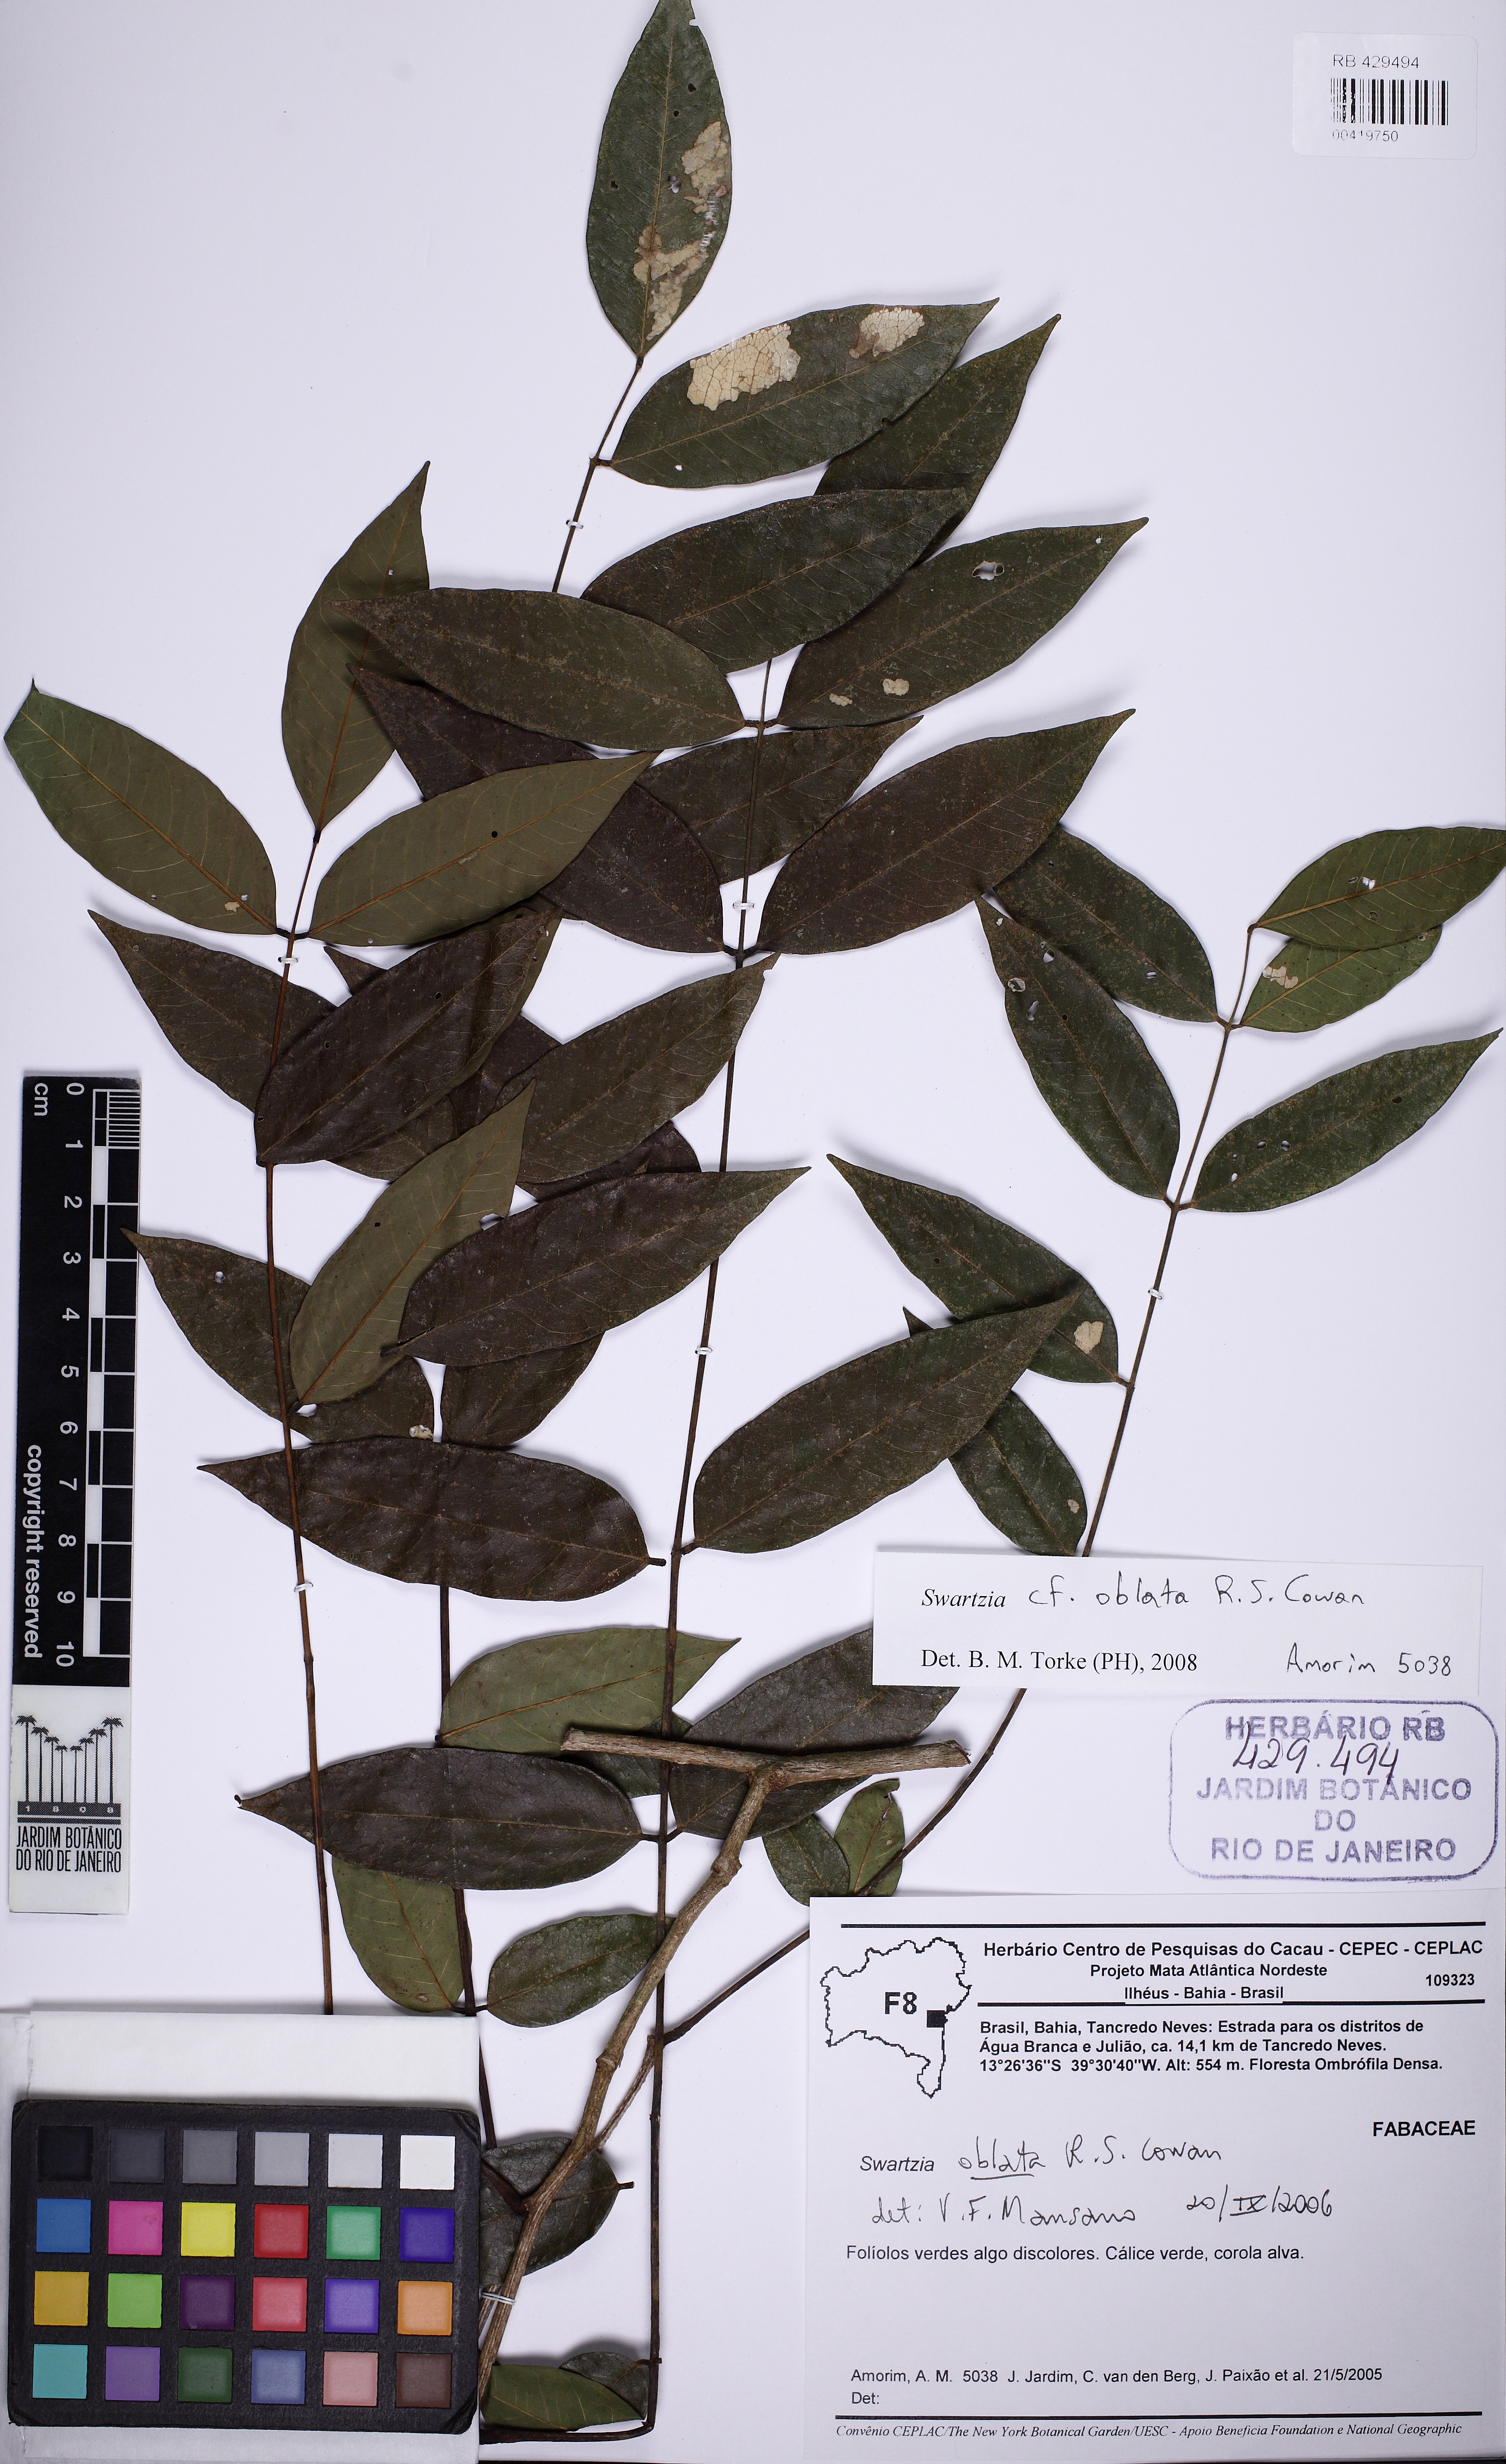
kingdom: Plantae
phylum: Tracheophyta
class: Magnoliopsida
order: Fabales
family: Fabaceae
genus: Swartzia
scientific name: Swartzia oblata
